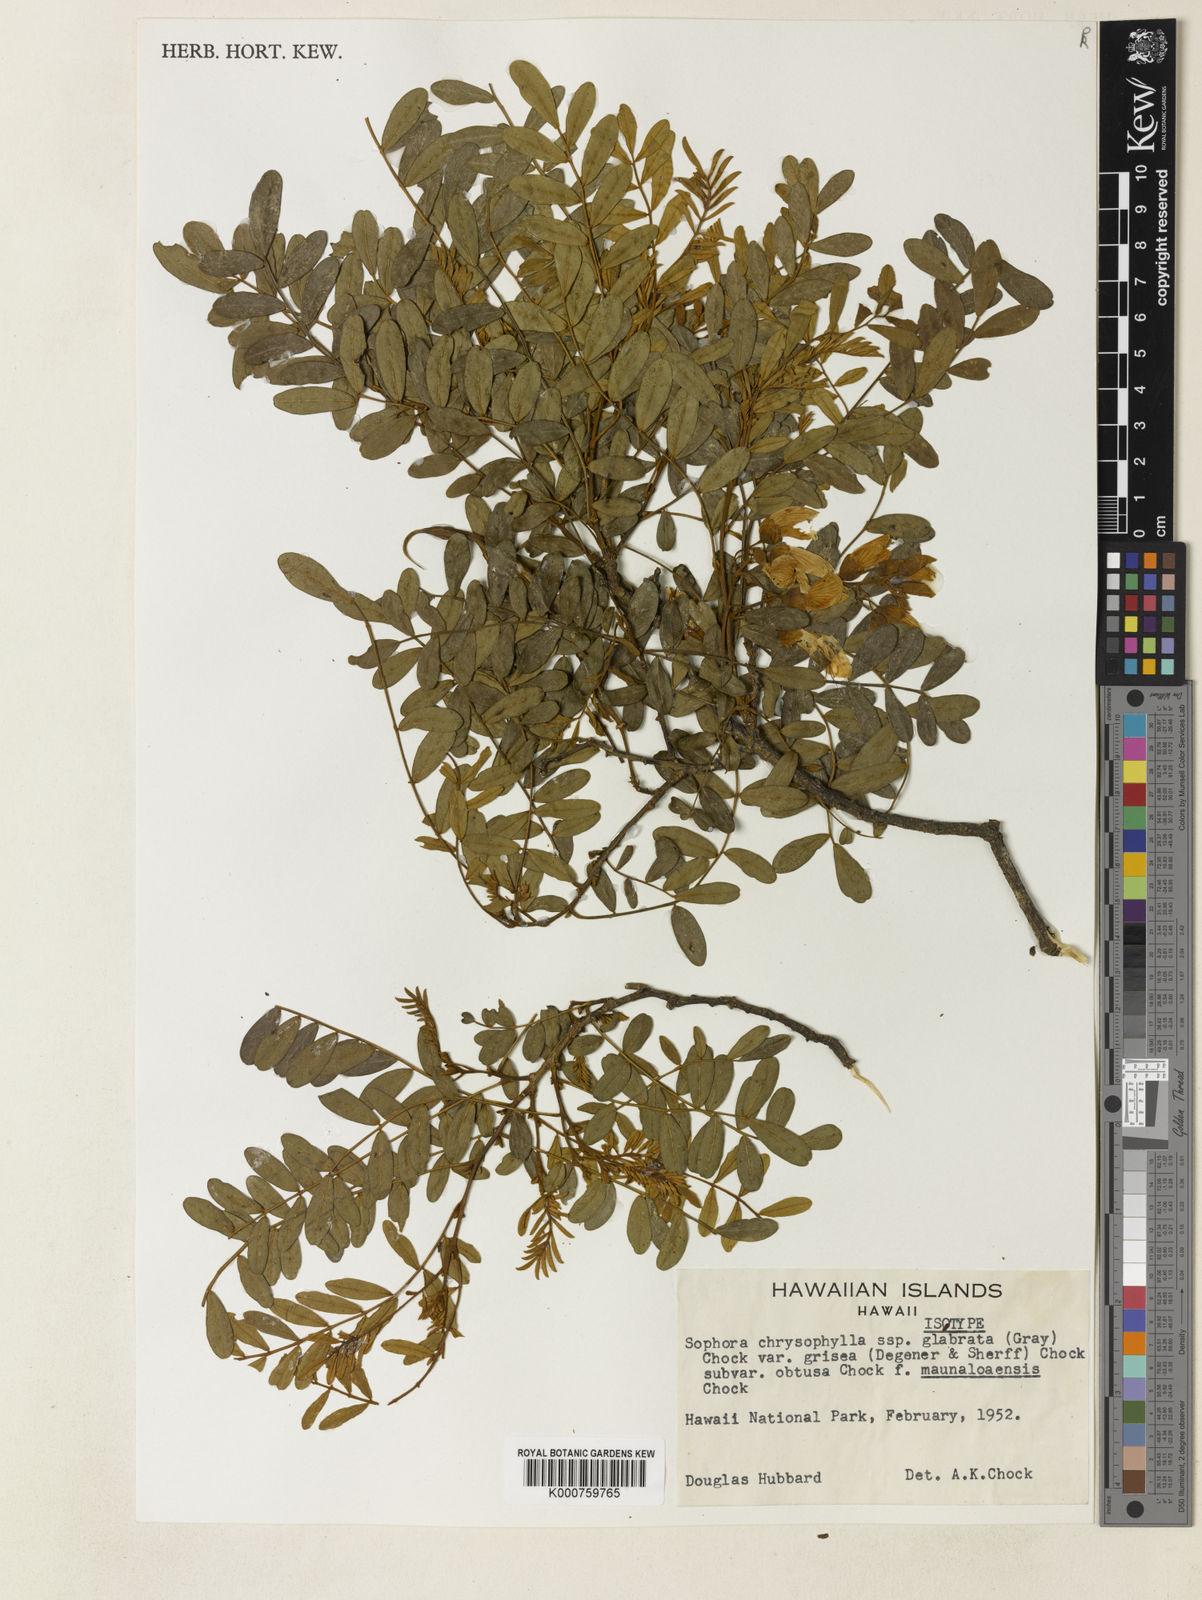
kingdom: Plantae
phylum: Tracheophyta
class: Magnoliopsida
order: Fabales
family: Fabaceae
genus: Sophora
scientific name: Sophora chrysophylla
